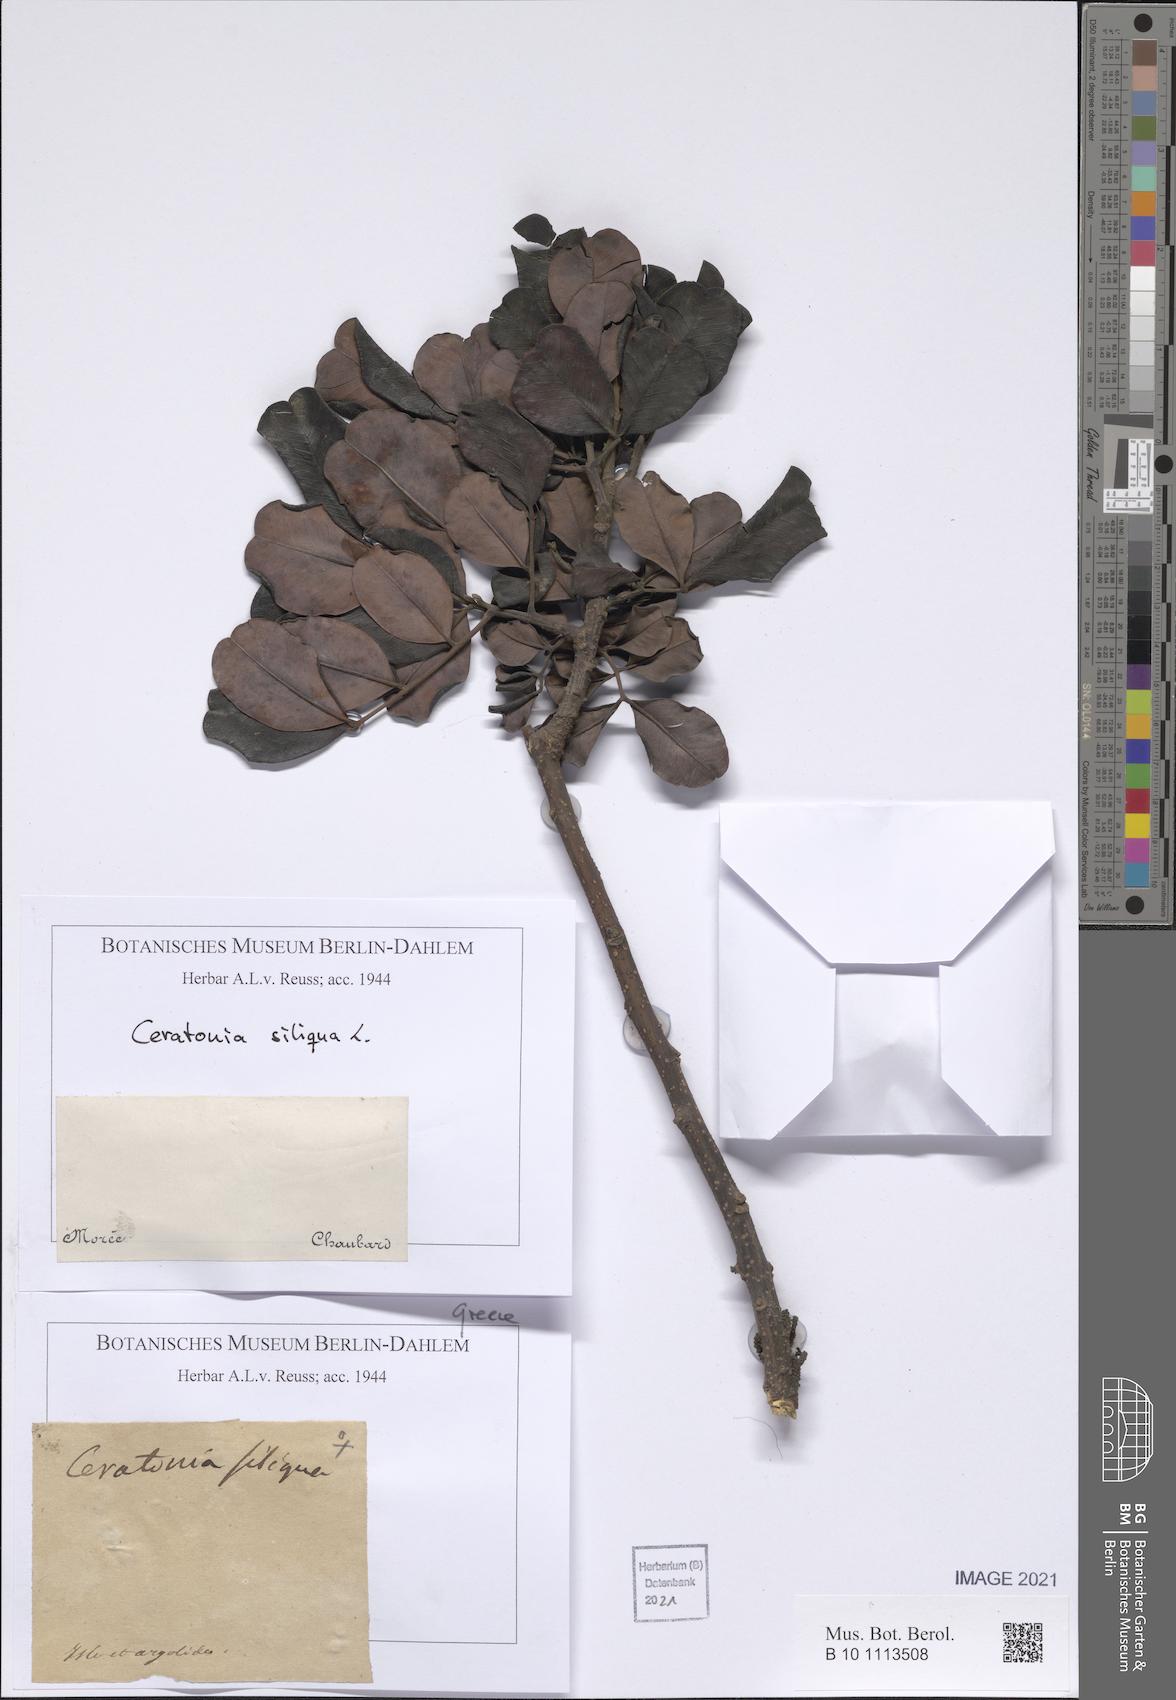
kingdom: Plantae
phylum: Tracheophyta
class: Magnoliopsida
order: Fabales
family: Fabaceae
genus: Ceratonia
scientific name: Ceratonia siliqua
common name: Carob
